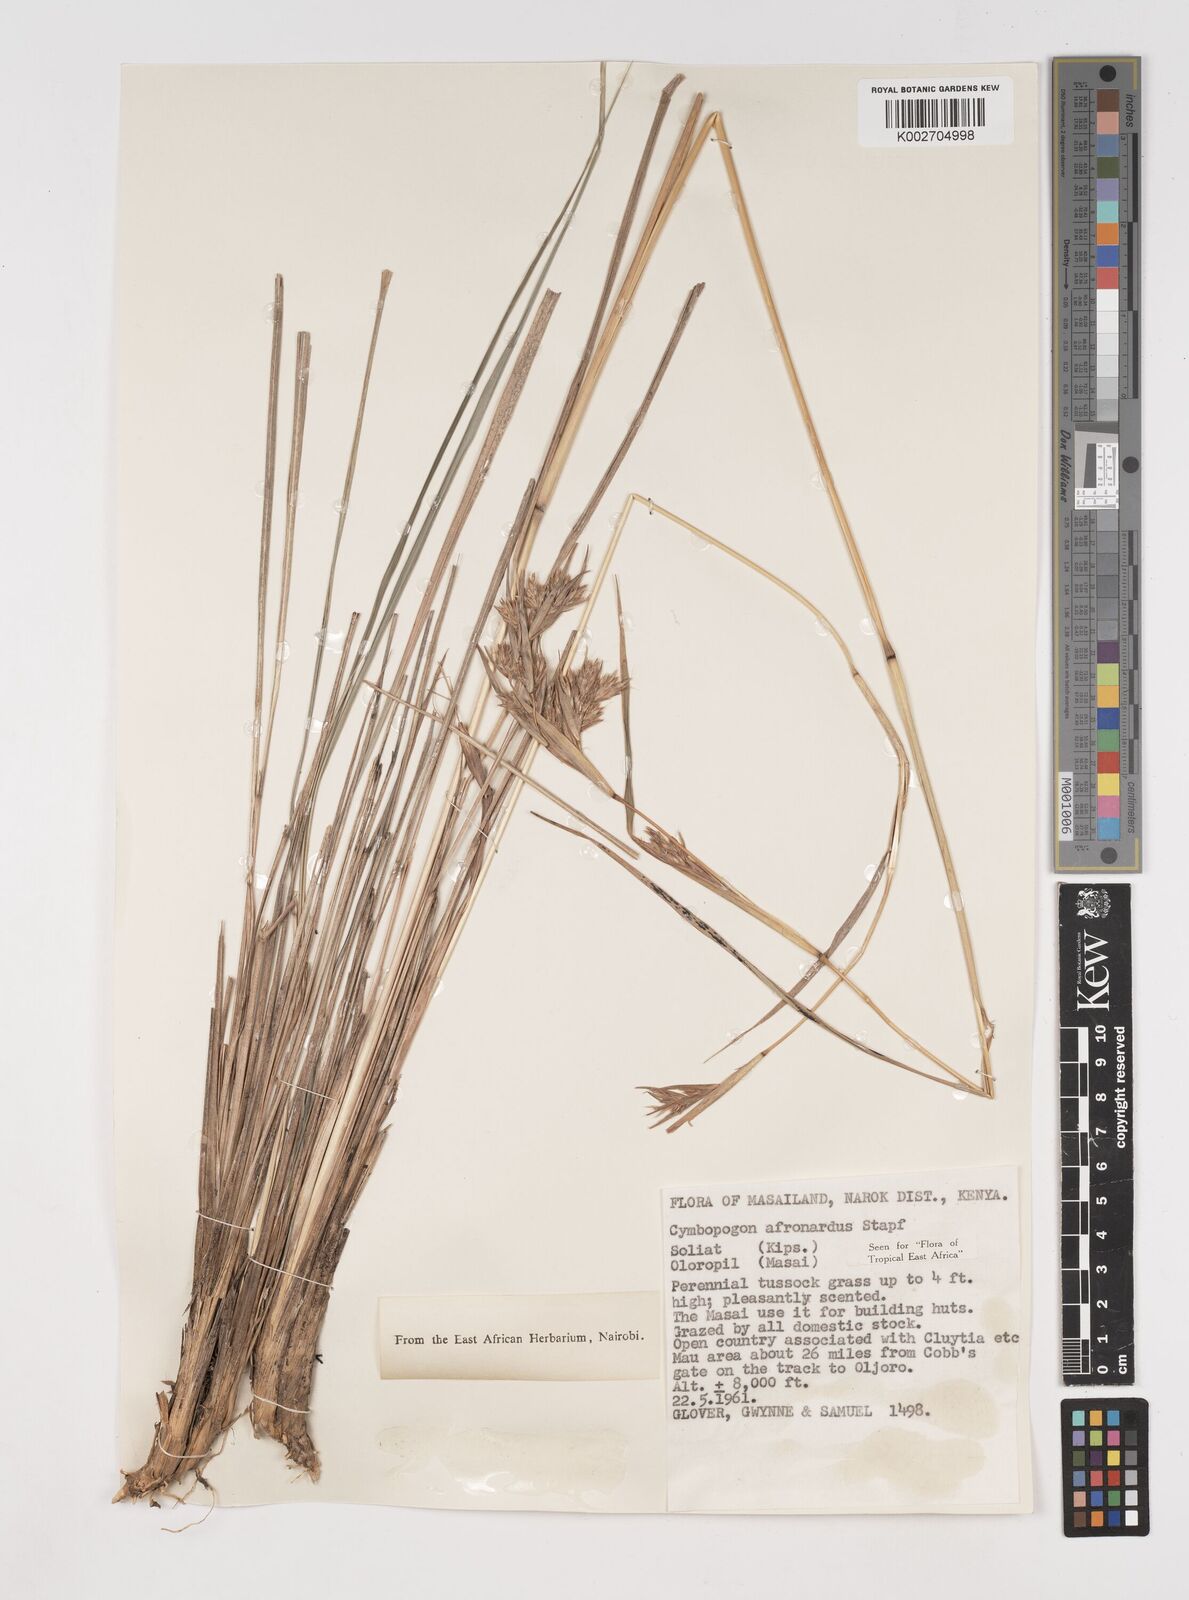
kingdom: Plantae
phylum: Tracheophyta
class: Liliopsida
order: Poales
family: Poaceae
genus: Cymbopogon
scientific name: Cymbopogon nardus
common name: Giant turpentine grass
